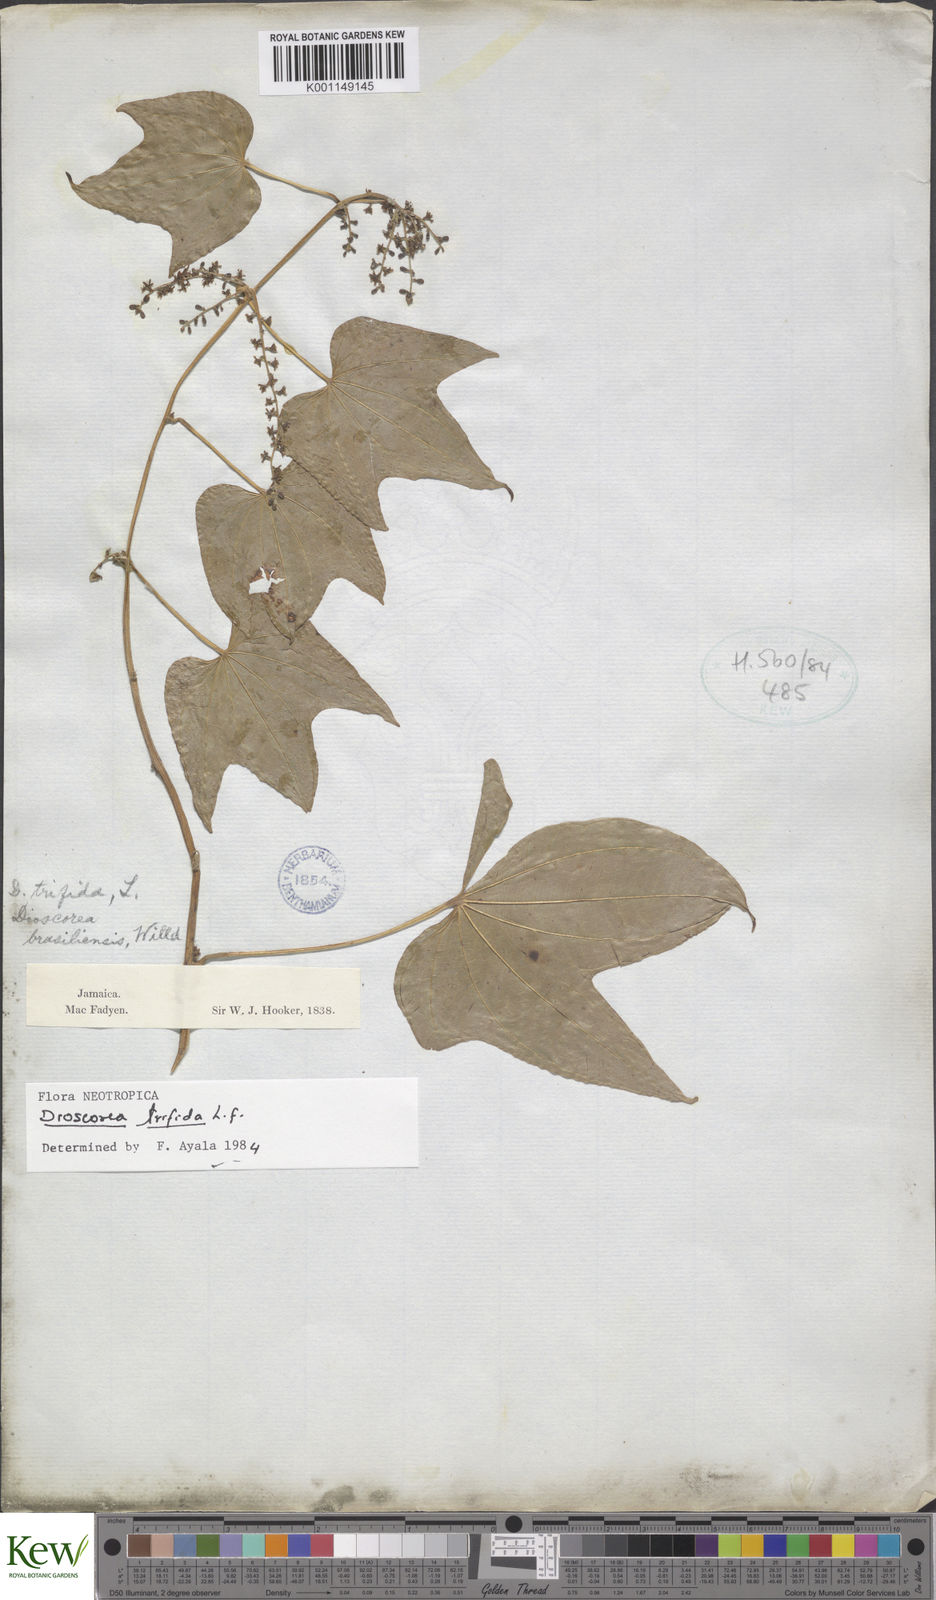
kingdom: Plantae
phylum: Tracheophyta
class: Liliopsida
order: Dioscoreales
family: Dioscoreaceae
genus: Dioscorea
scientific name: Dioscorea trifida
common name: Cush-cush
